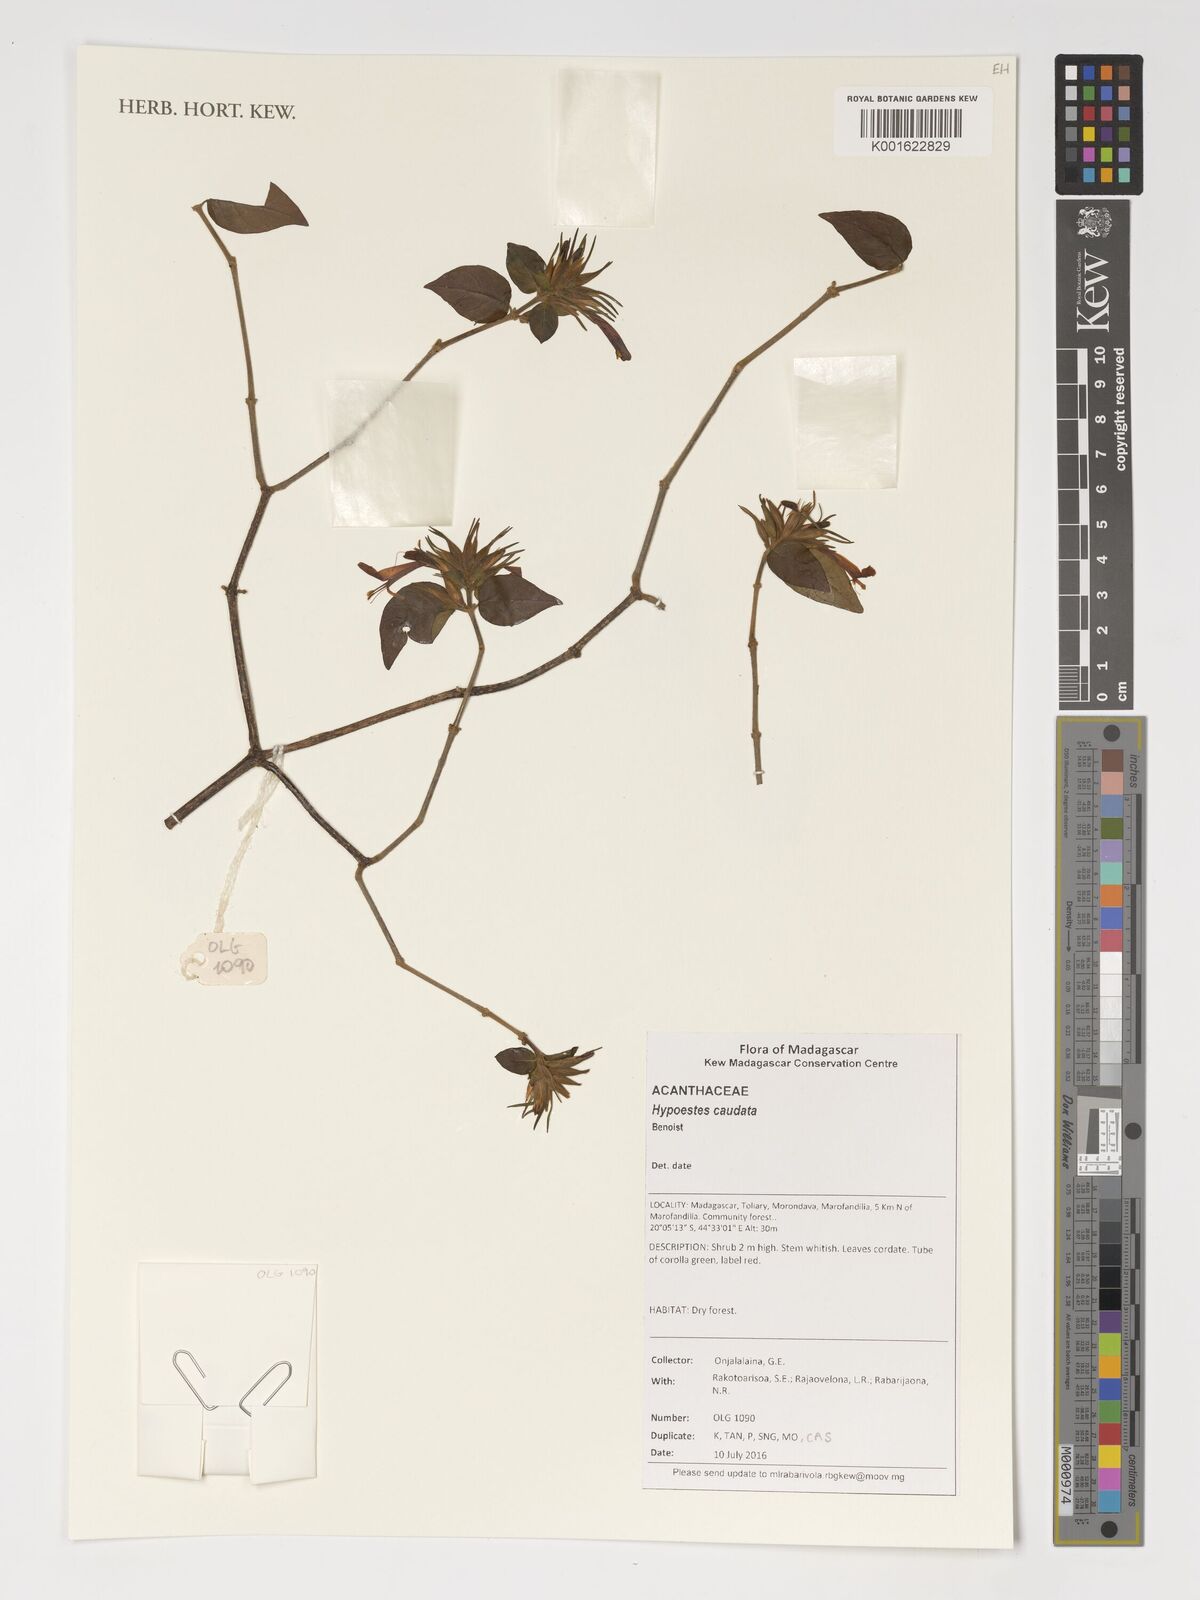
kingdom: Plantae
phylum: Tracheophyta
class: Magnoliopsida
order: Lamiales
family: Acanthaceae
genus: Hypoestes
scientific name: Hypoestes caudata
